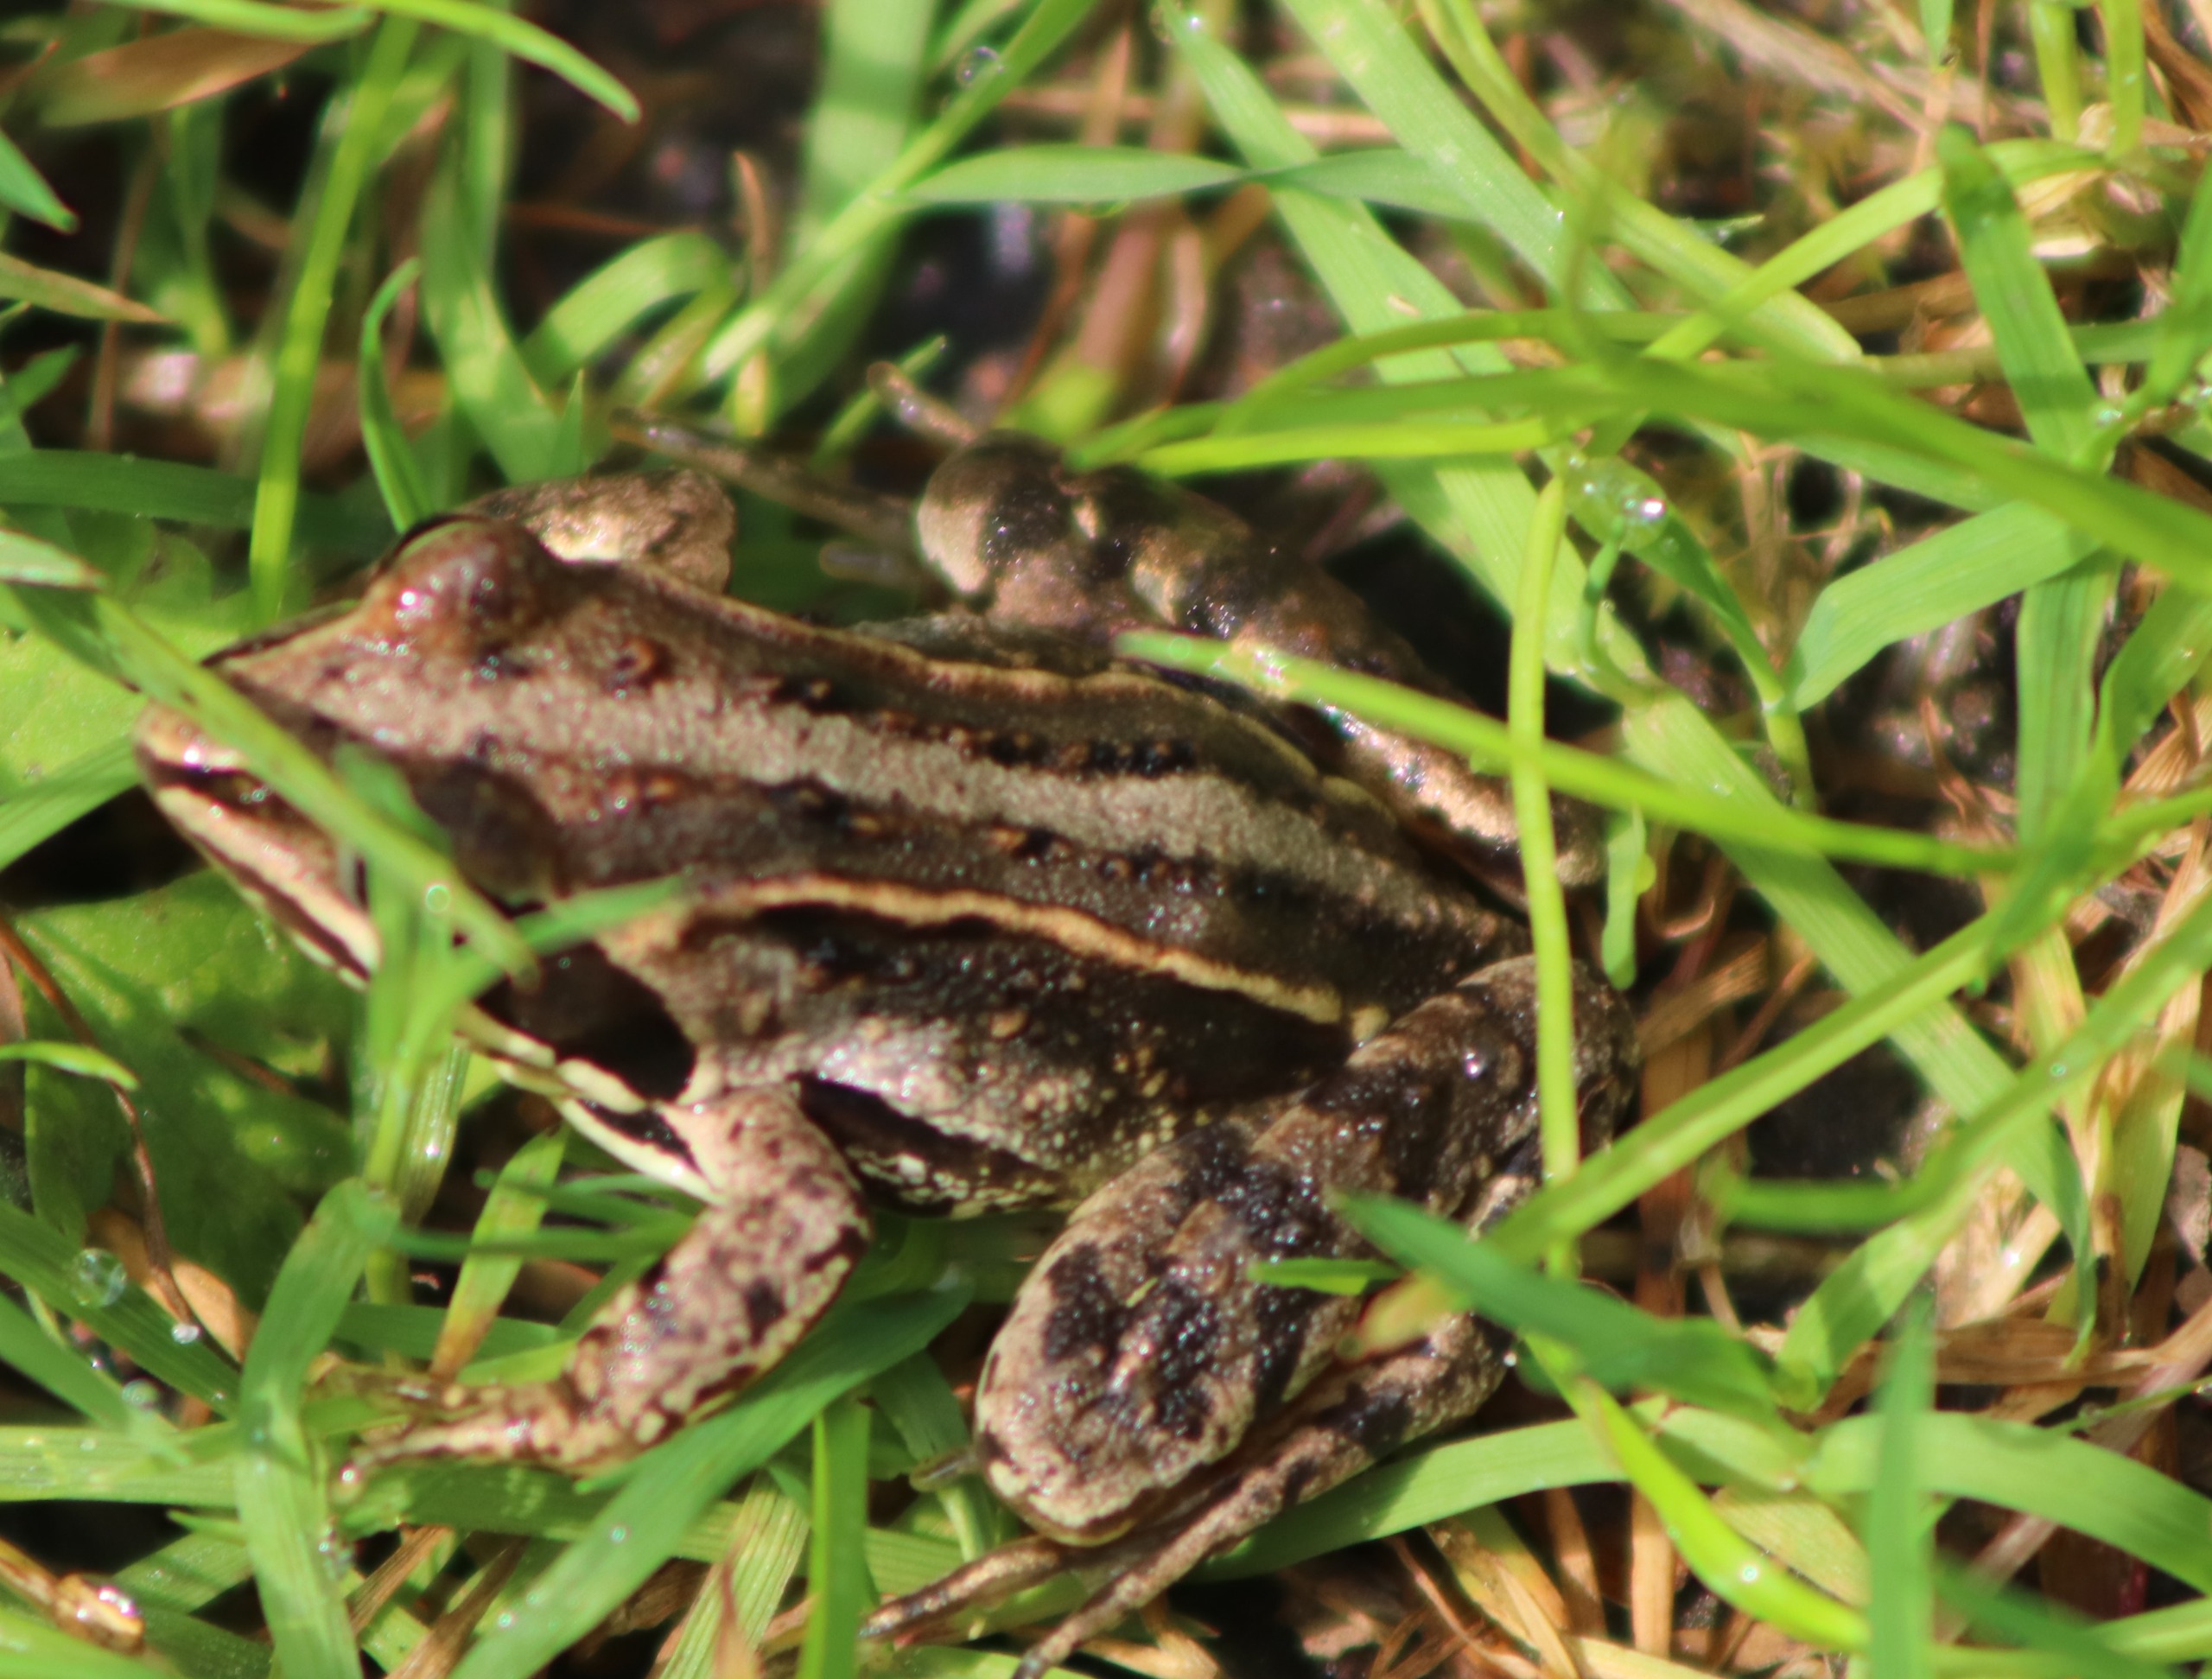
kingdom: Animalia
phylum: Chordata
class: Amphibia
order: Anura
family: Ranidae
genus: Rana
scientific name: Rana arvalis
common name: Spidssnudet frø
